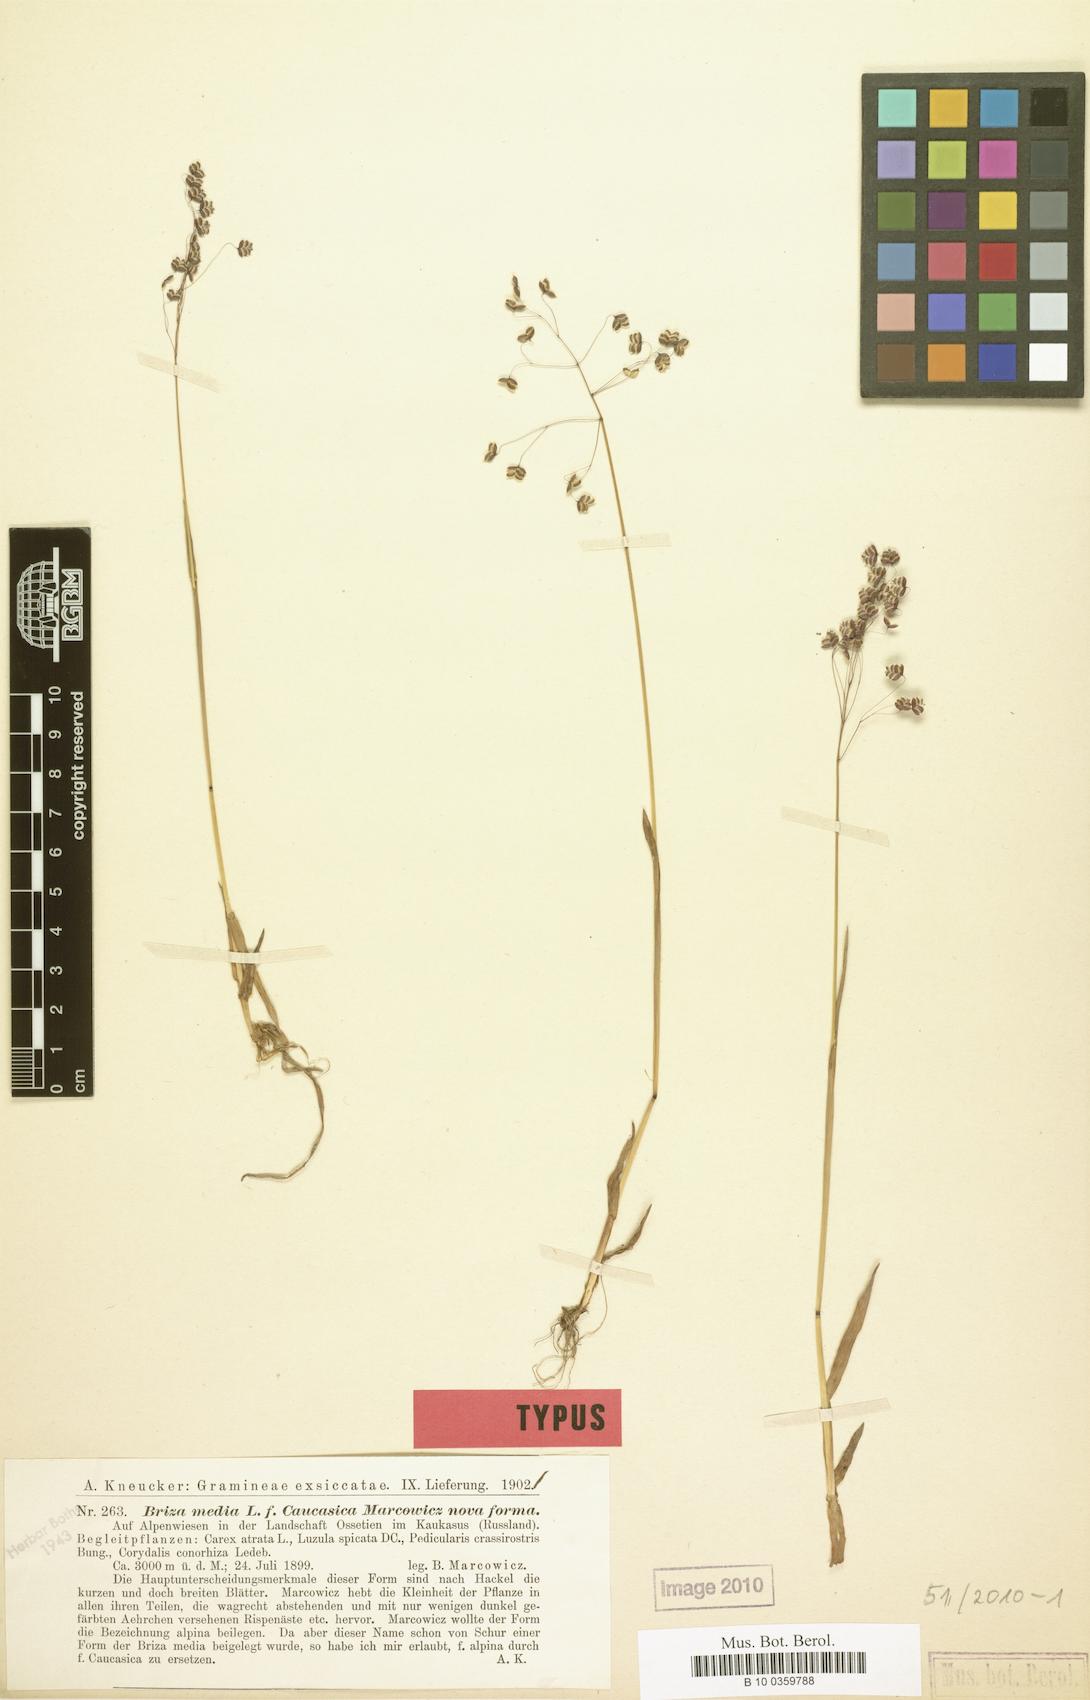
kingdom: Plantae
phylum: Tracheophyta
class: Liliopsida
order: Poales
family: Poaceae
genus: Briza
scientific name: Briza marcowiczii
